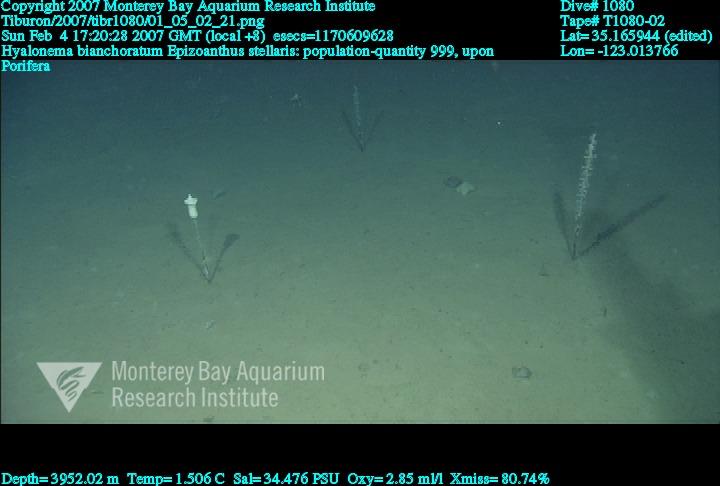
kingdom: Animalia
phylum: Porifera
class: Hexactinellida
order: Amphidiscosida
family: Hyalonematidae
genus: Hyalonema
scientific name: Hyalonema bianchoratum
